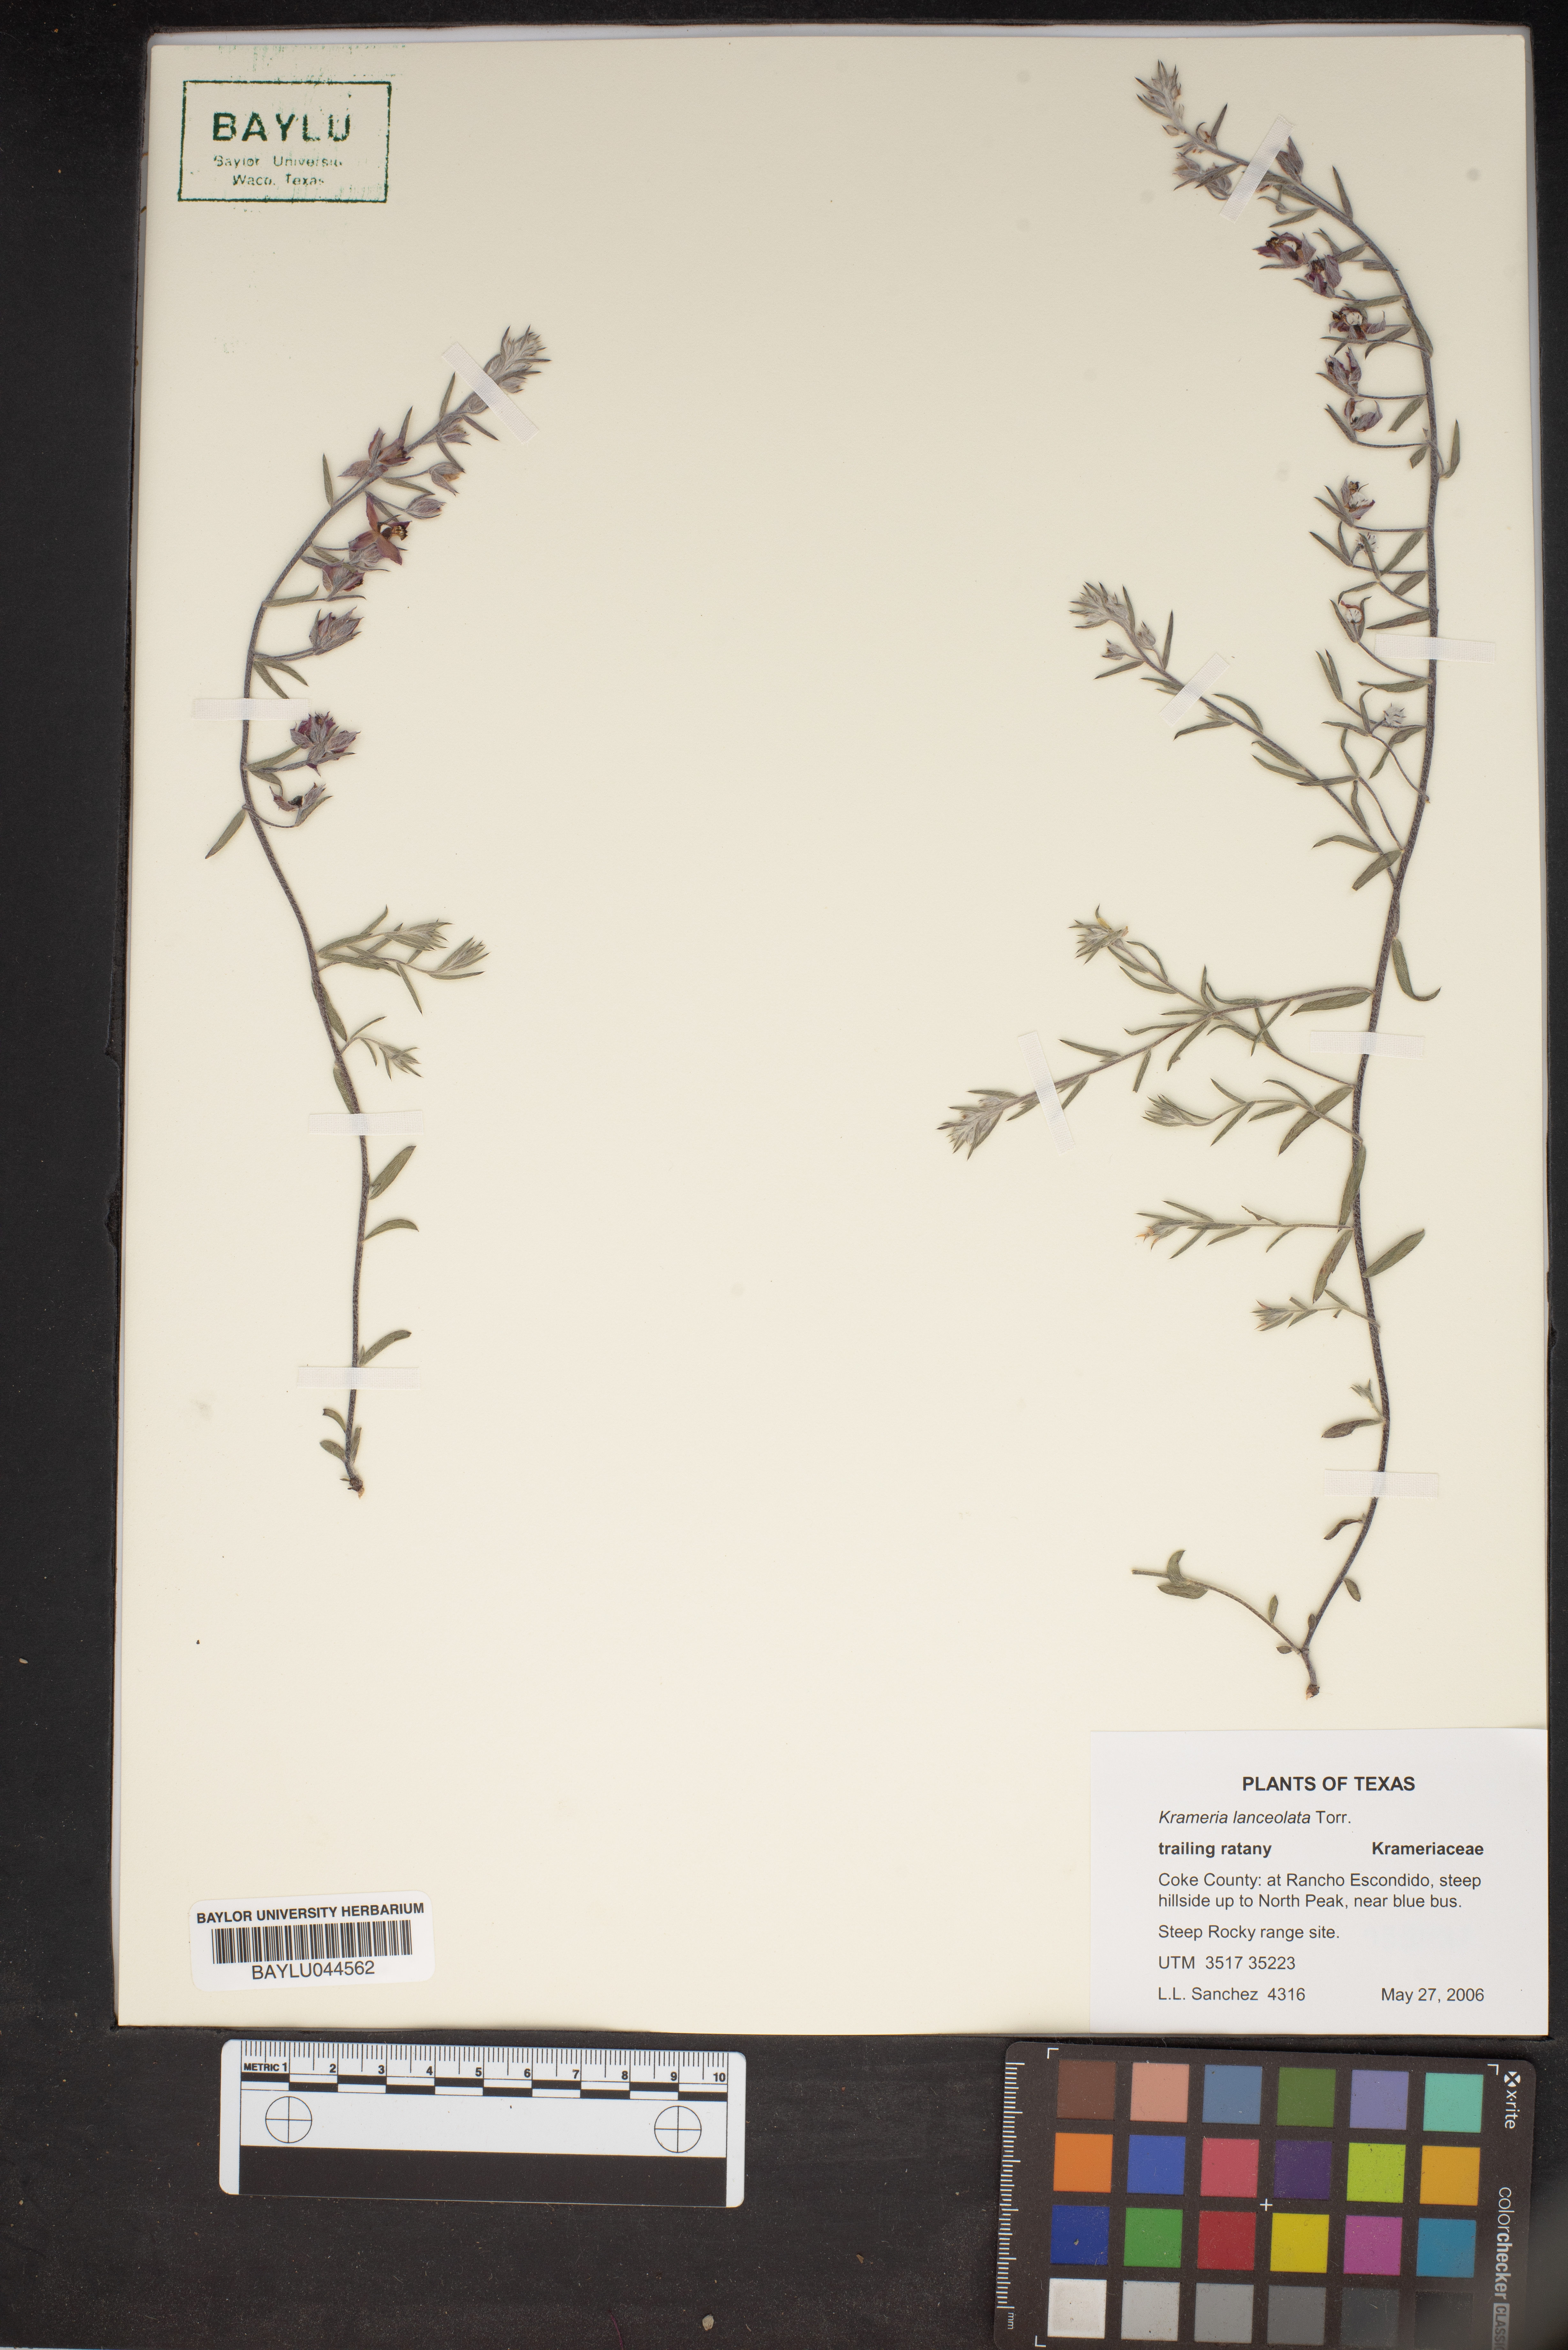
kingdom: Plantae
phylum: Tracheophyta
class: Magnoliopsida
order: Zygophyllales
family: Krameriaceae
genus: Krameria
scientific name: Krameria lanceolata
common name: Ratany
